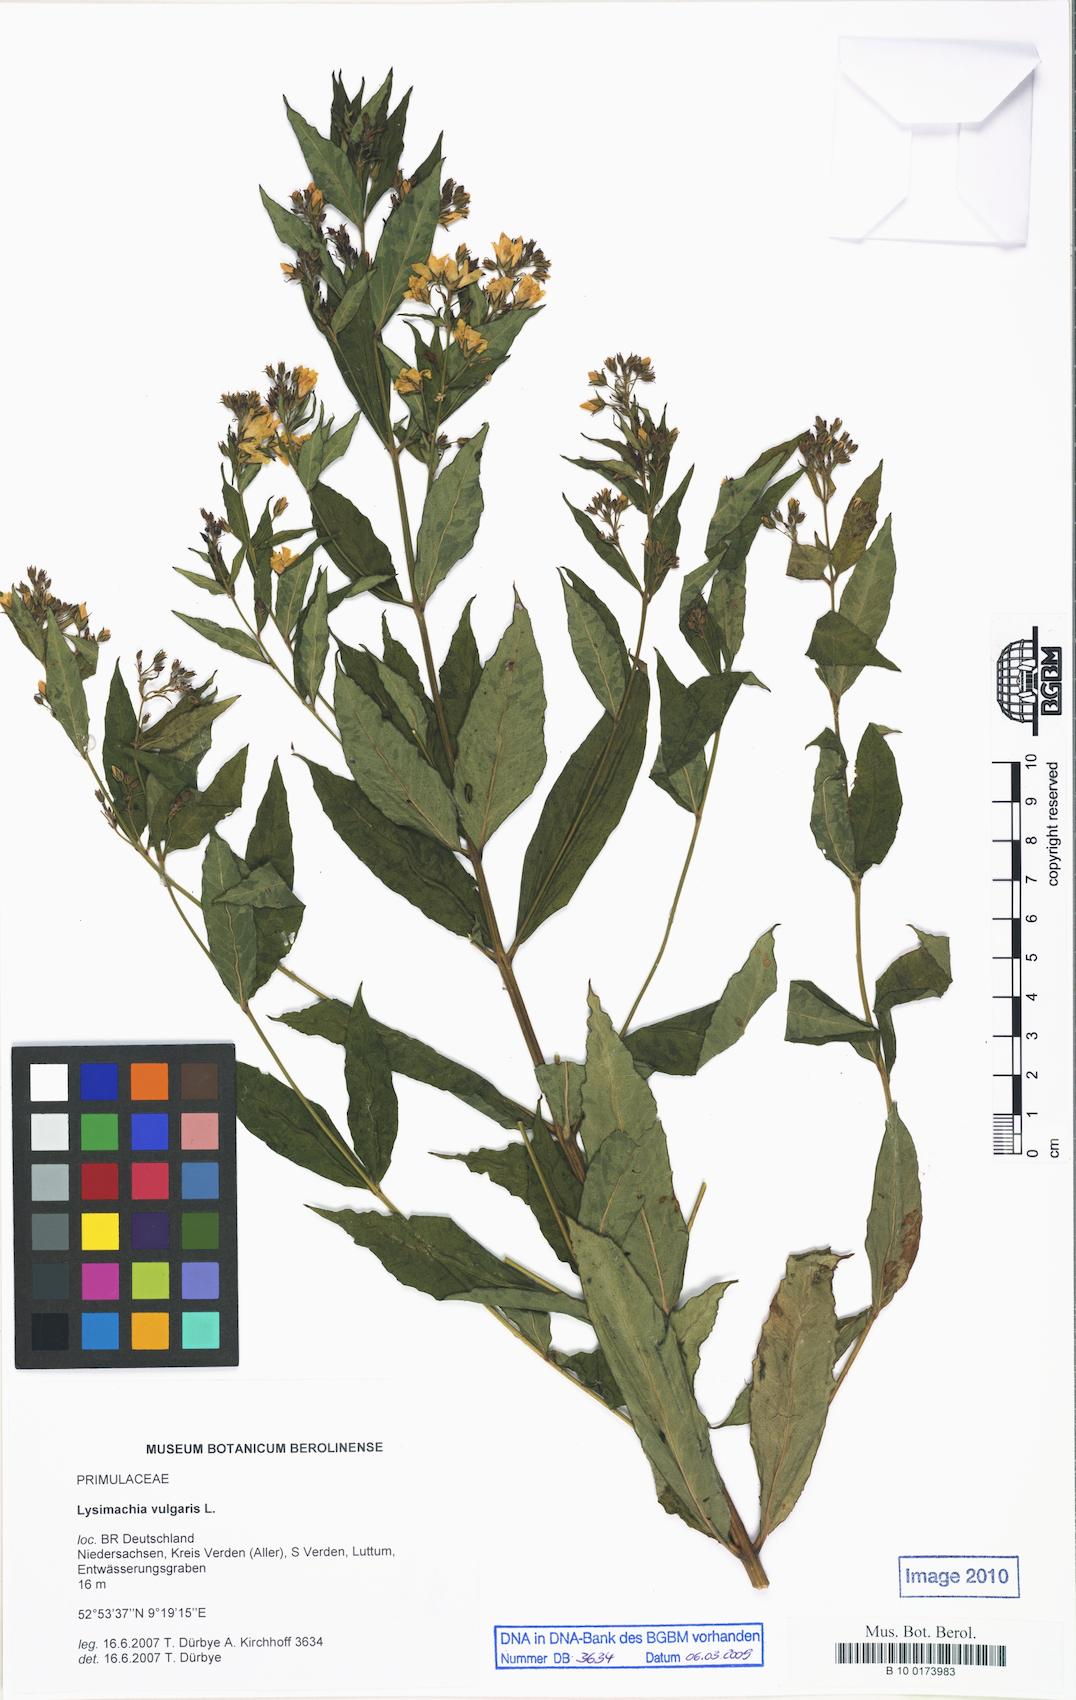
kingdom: Plantae
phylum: Tracheophyta
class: Magnoliopsida
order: Ericales
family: Primulaceae
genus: Lysimachia
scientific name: Lysimachia vulgaris
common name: Yellow loosestrife
